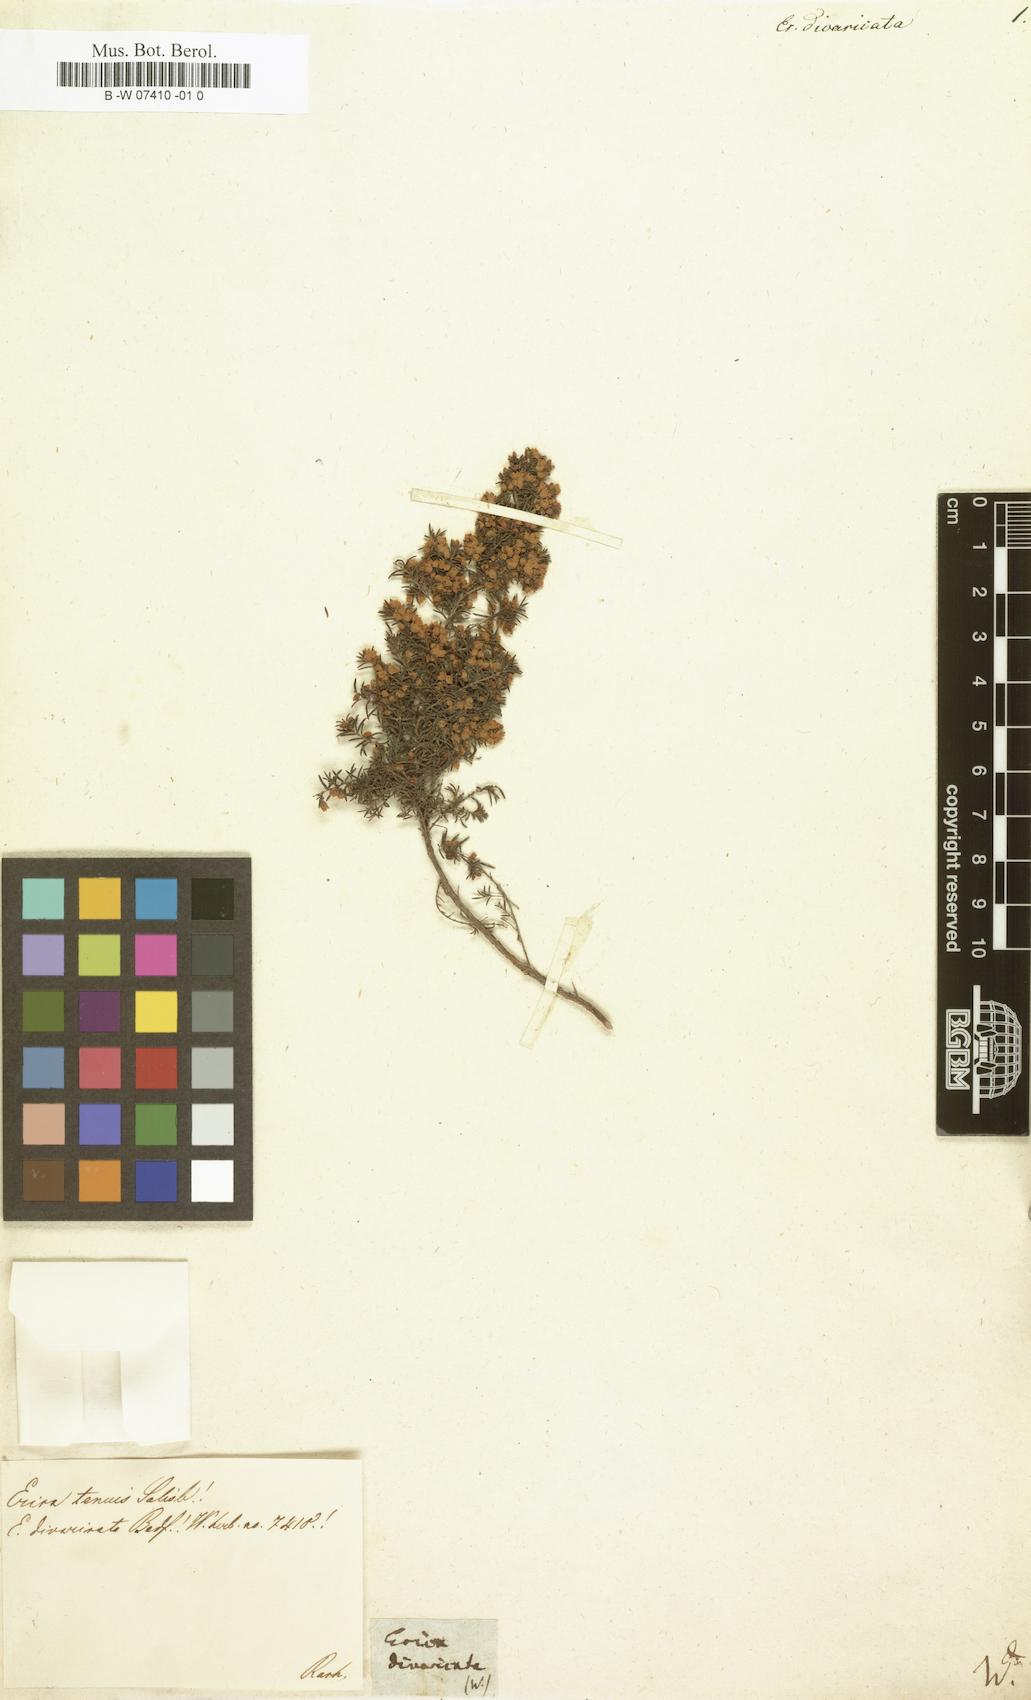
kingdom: Plantae
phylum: Tracheophyta
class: Magnoliopsida
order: Ericales
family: Ericaceae
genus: Erica
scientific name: Erica
